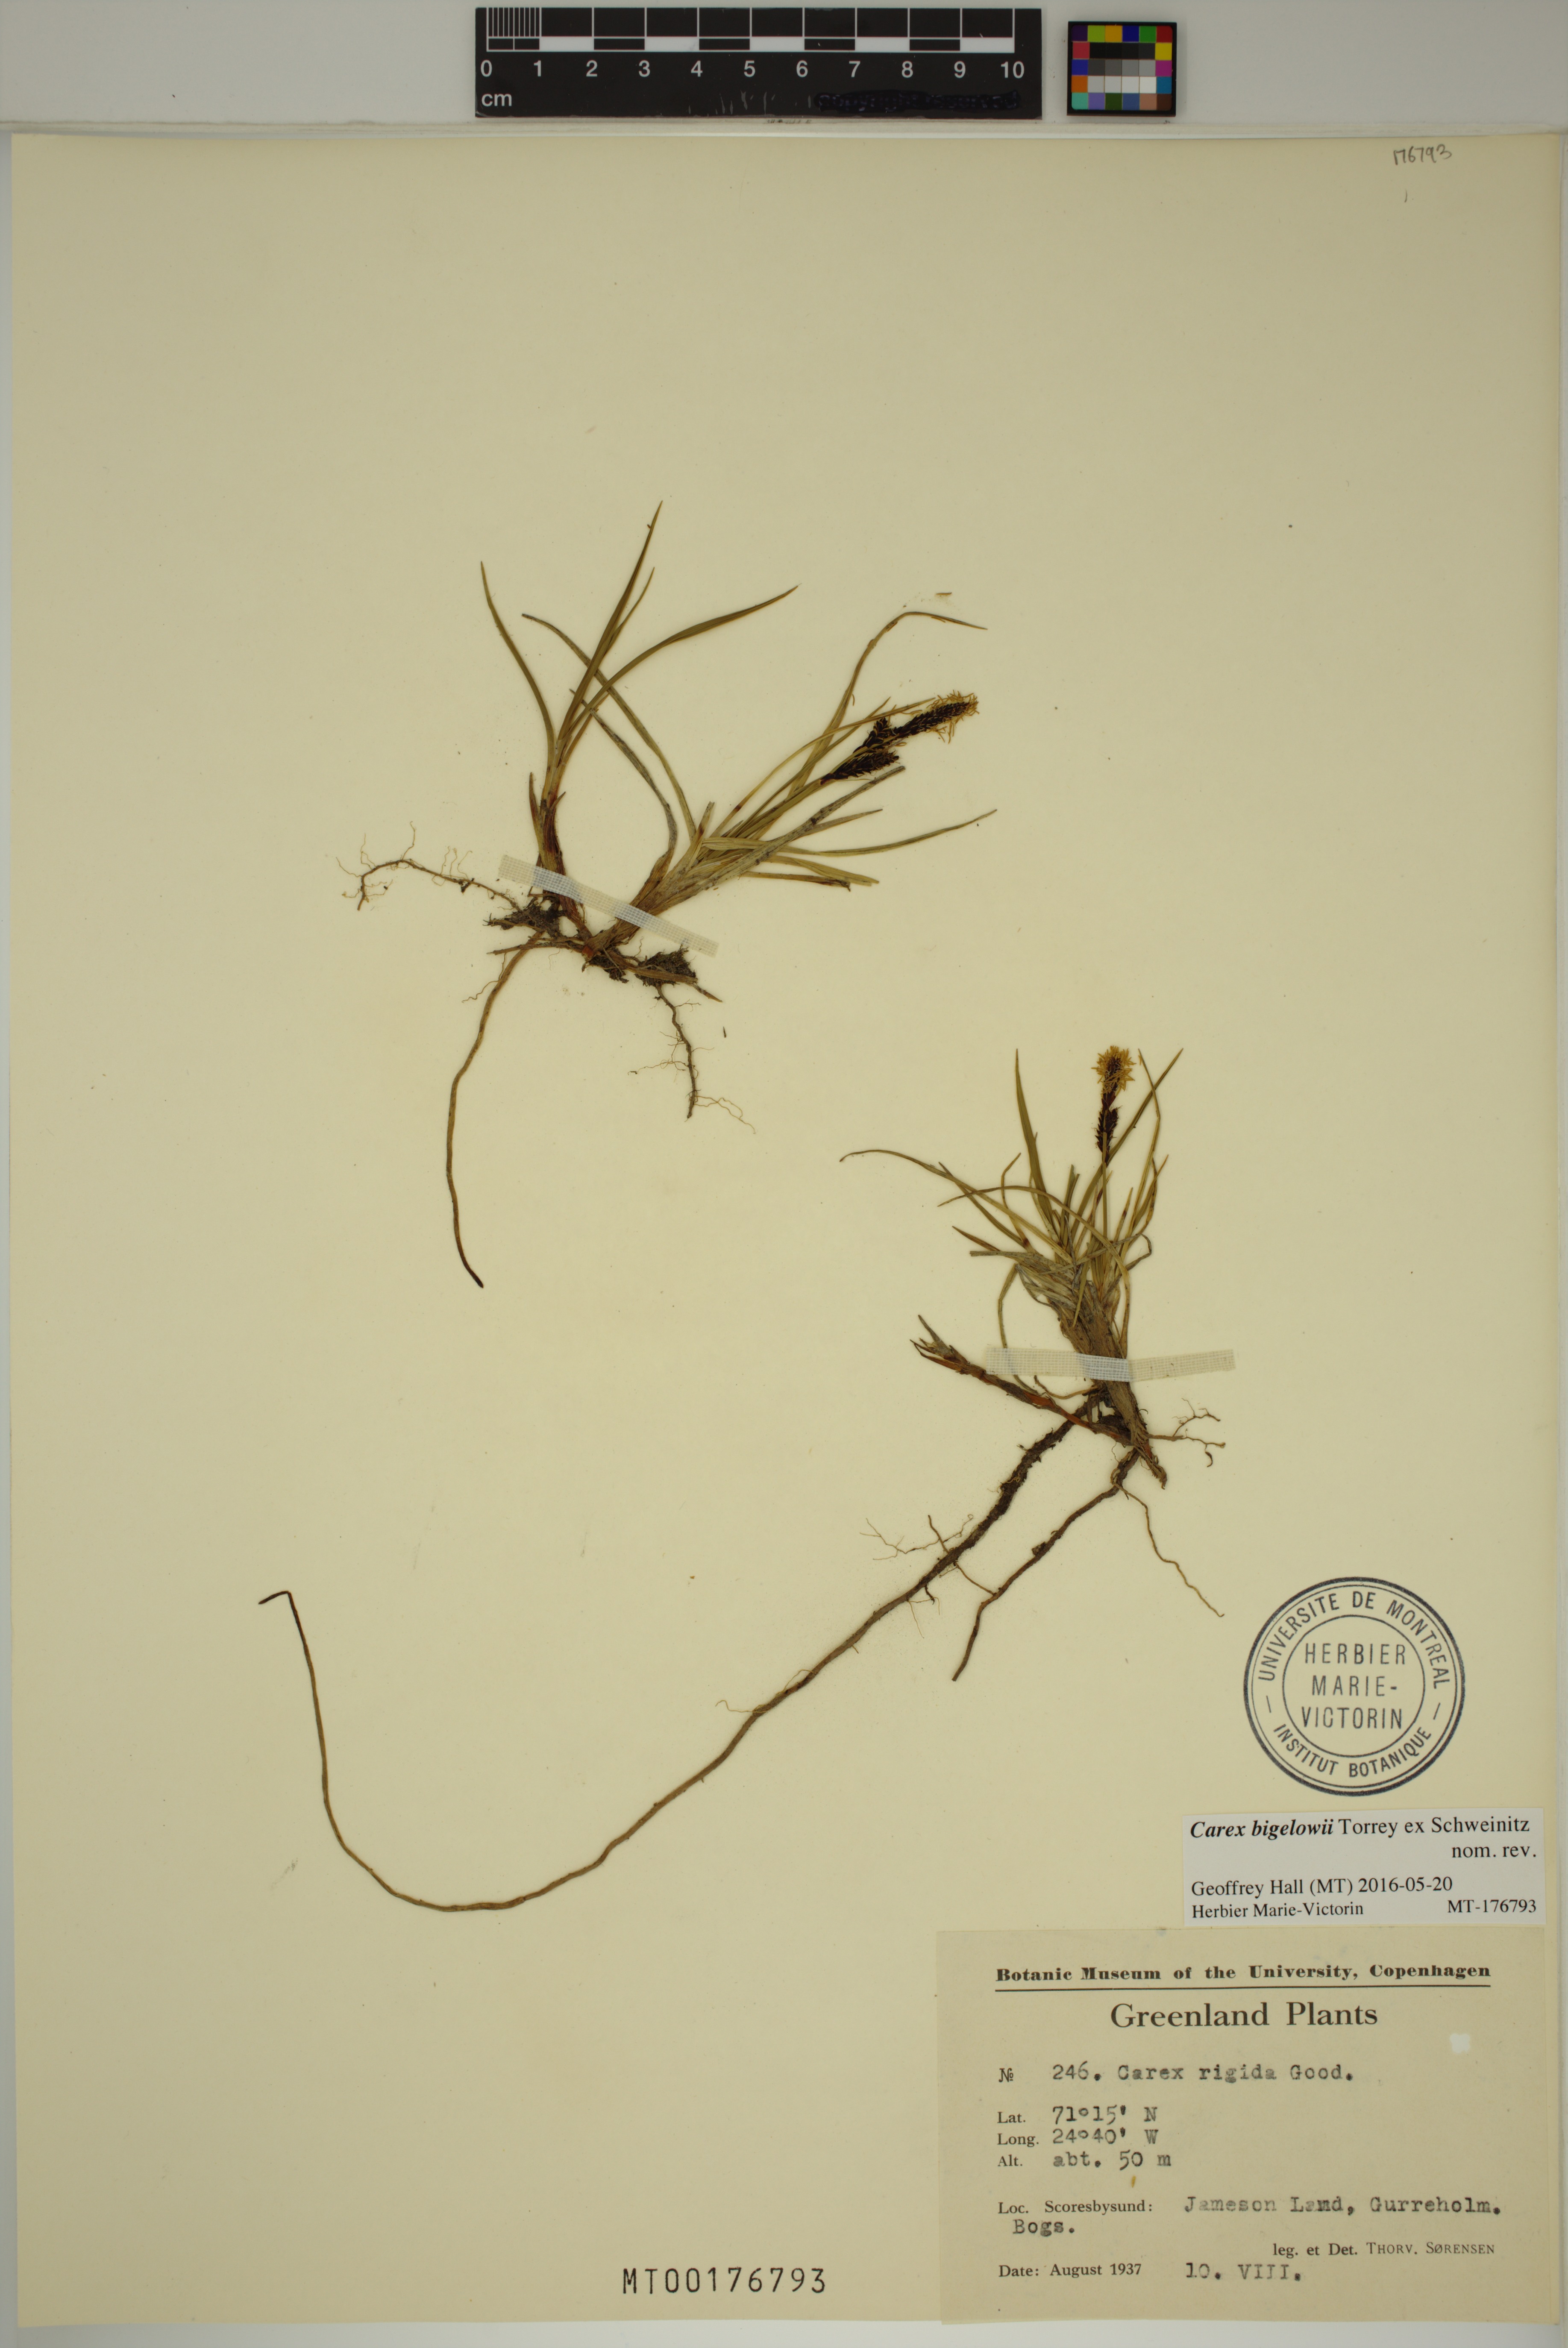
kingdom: Plantae
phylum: Tracheophyta
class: Liliopsida
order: Poales
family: Cyperaceae
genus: Carex
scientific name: Carex bigelowii
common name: Stiff sedge
